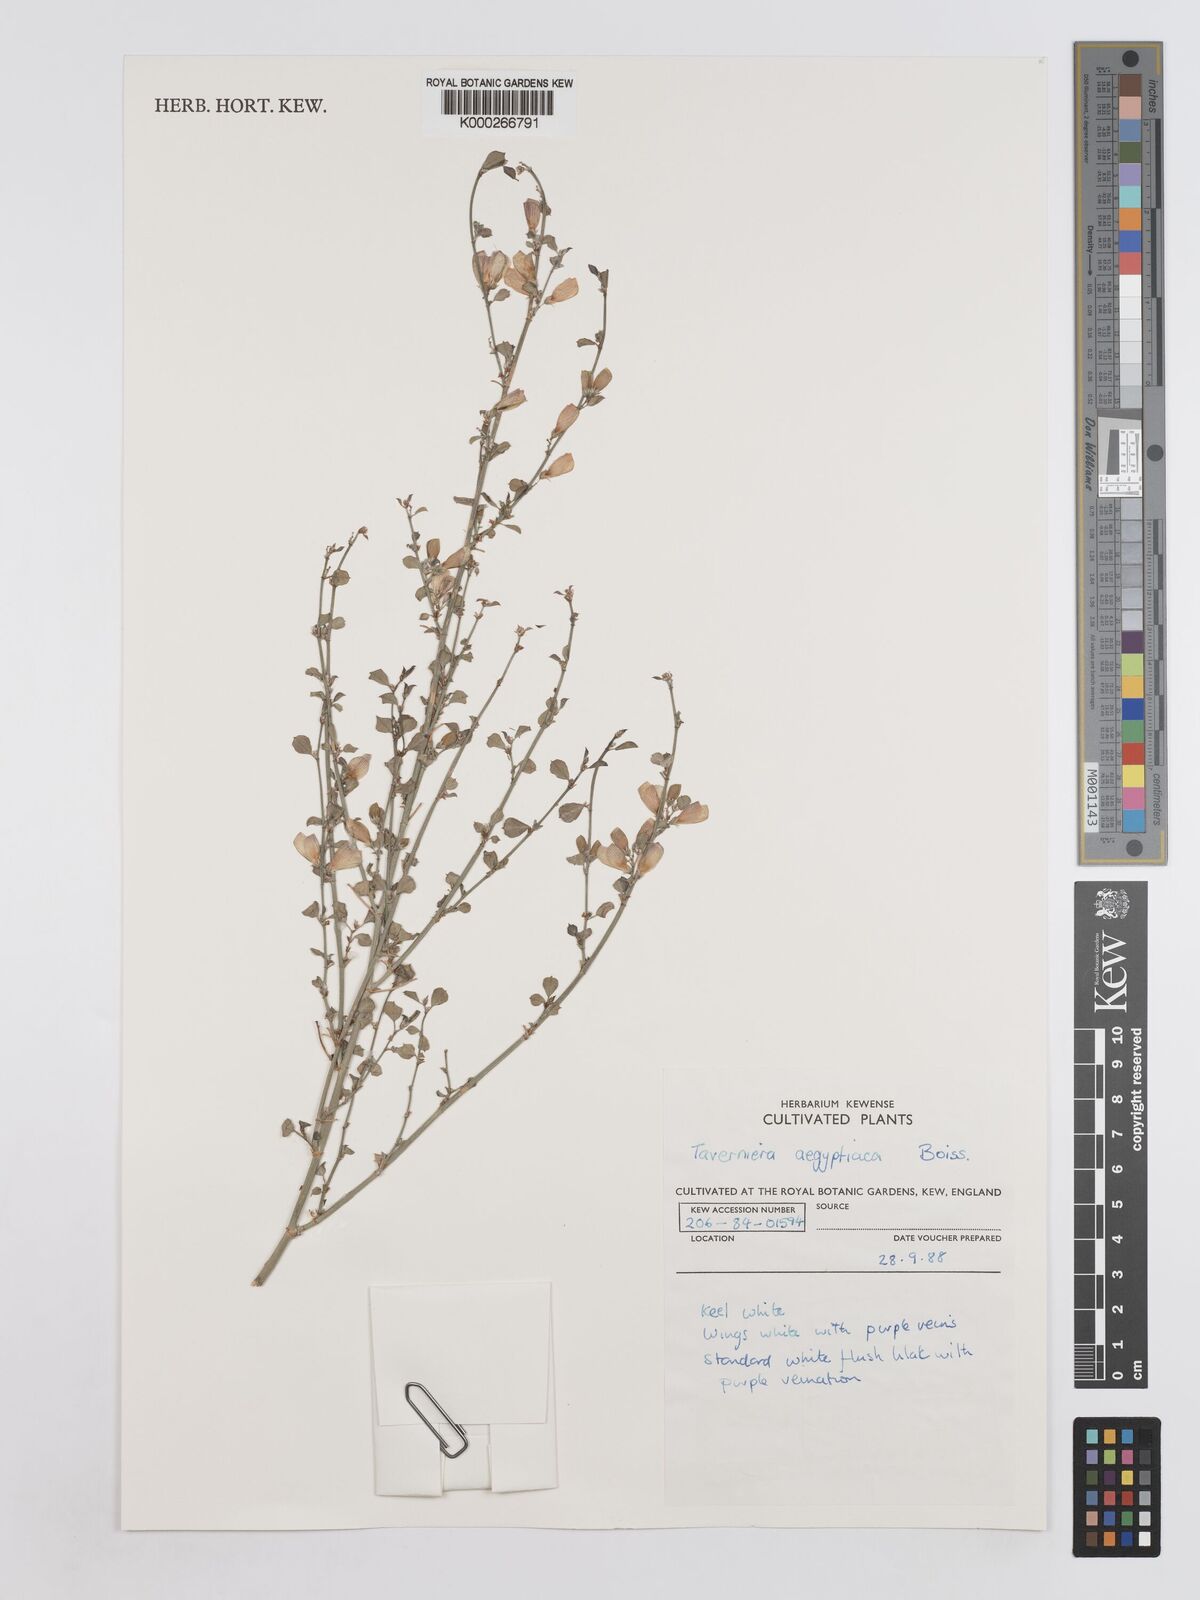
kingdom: Plantae
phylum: Tracheophyta
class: Magnoliopsida
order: Fabales
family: Fabaceae
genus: Taverniera
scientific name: Taverniera aegyptiaca
